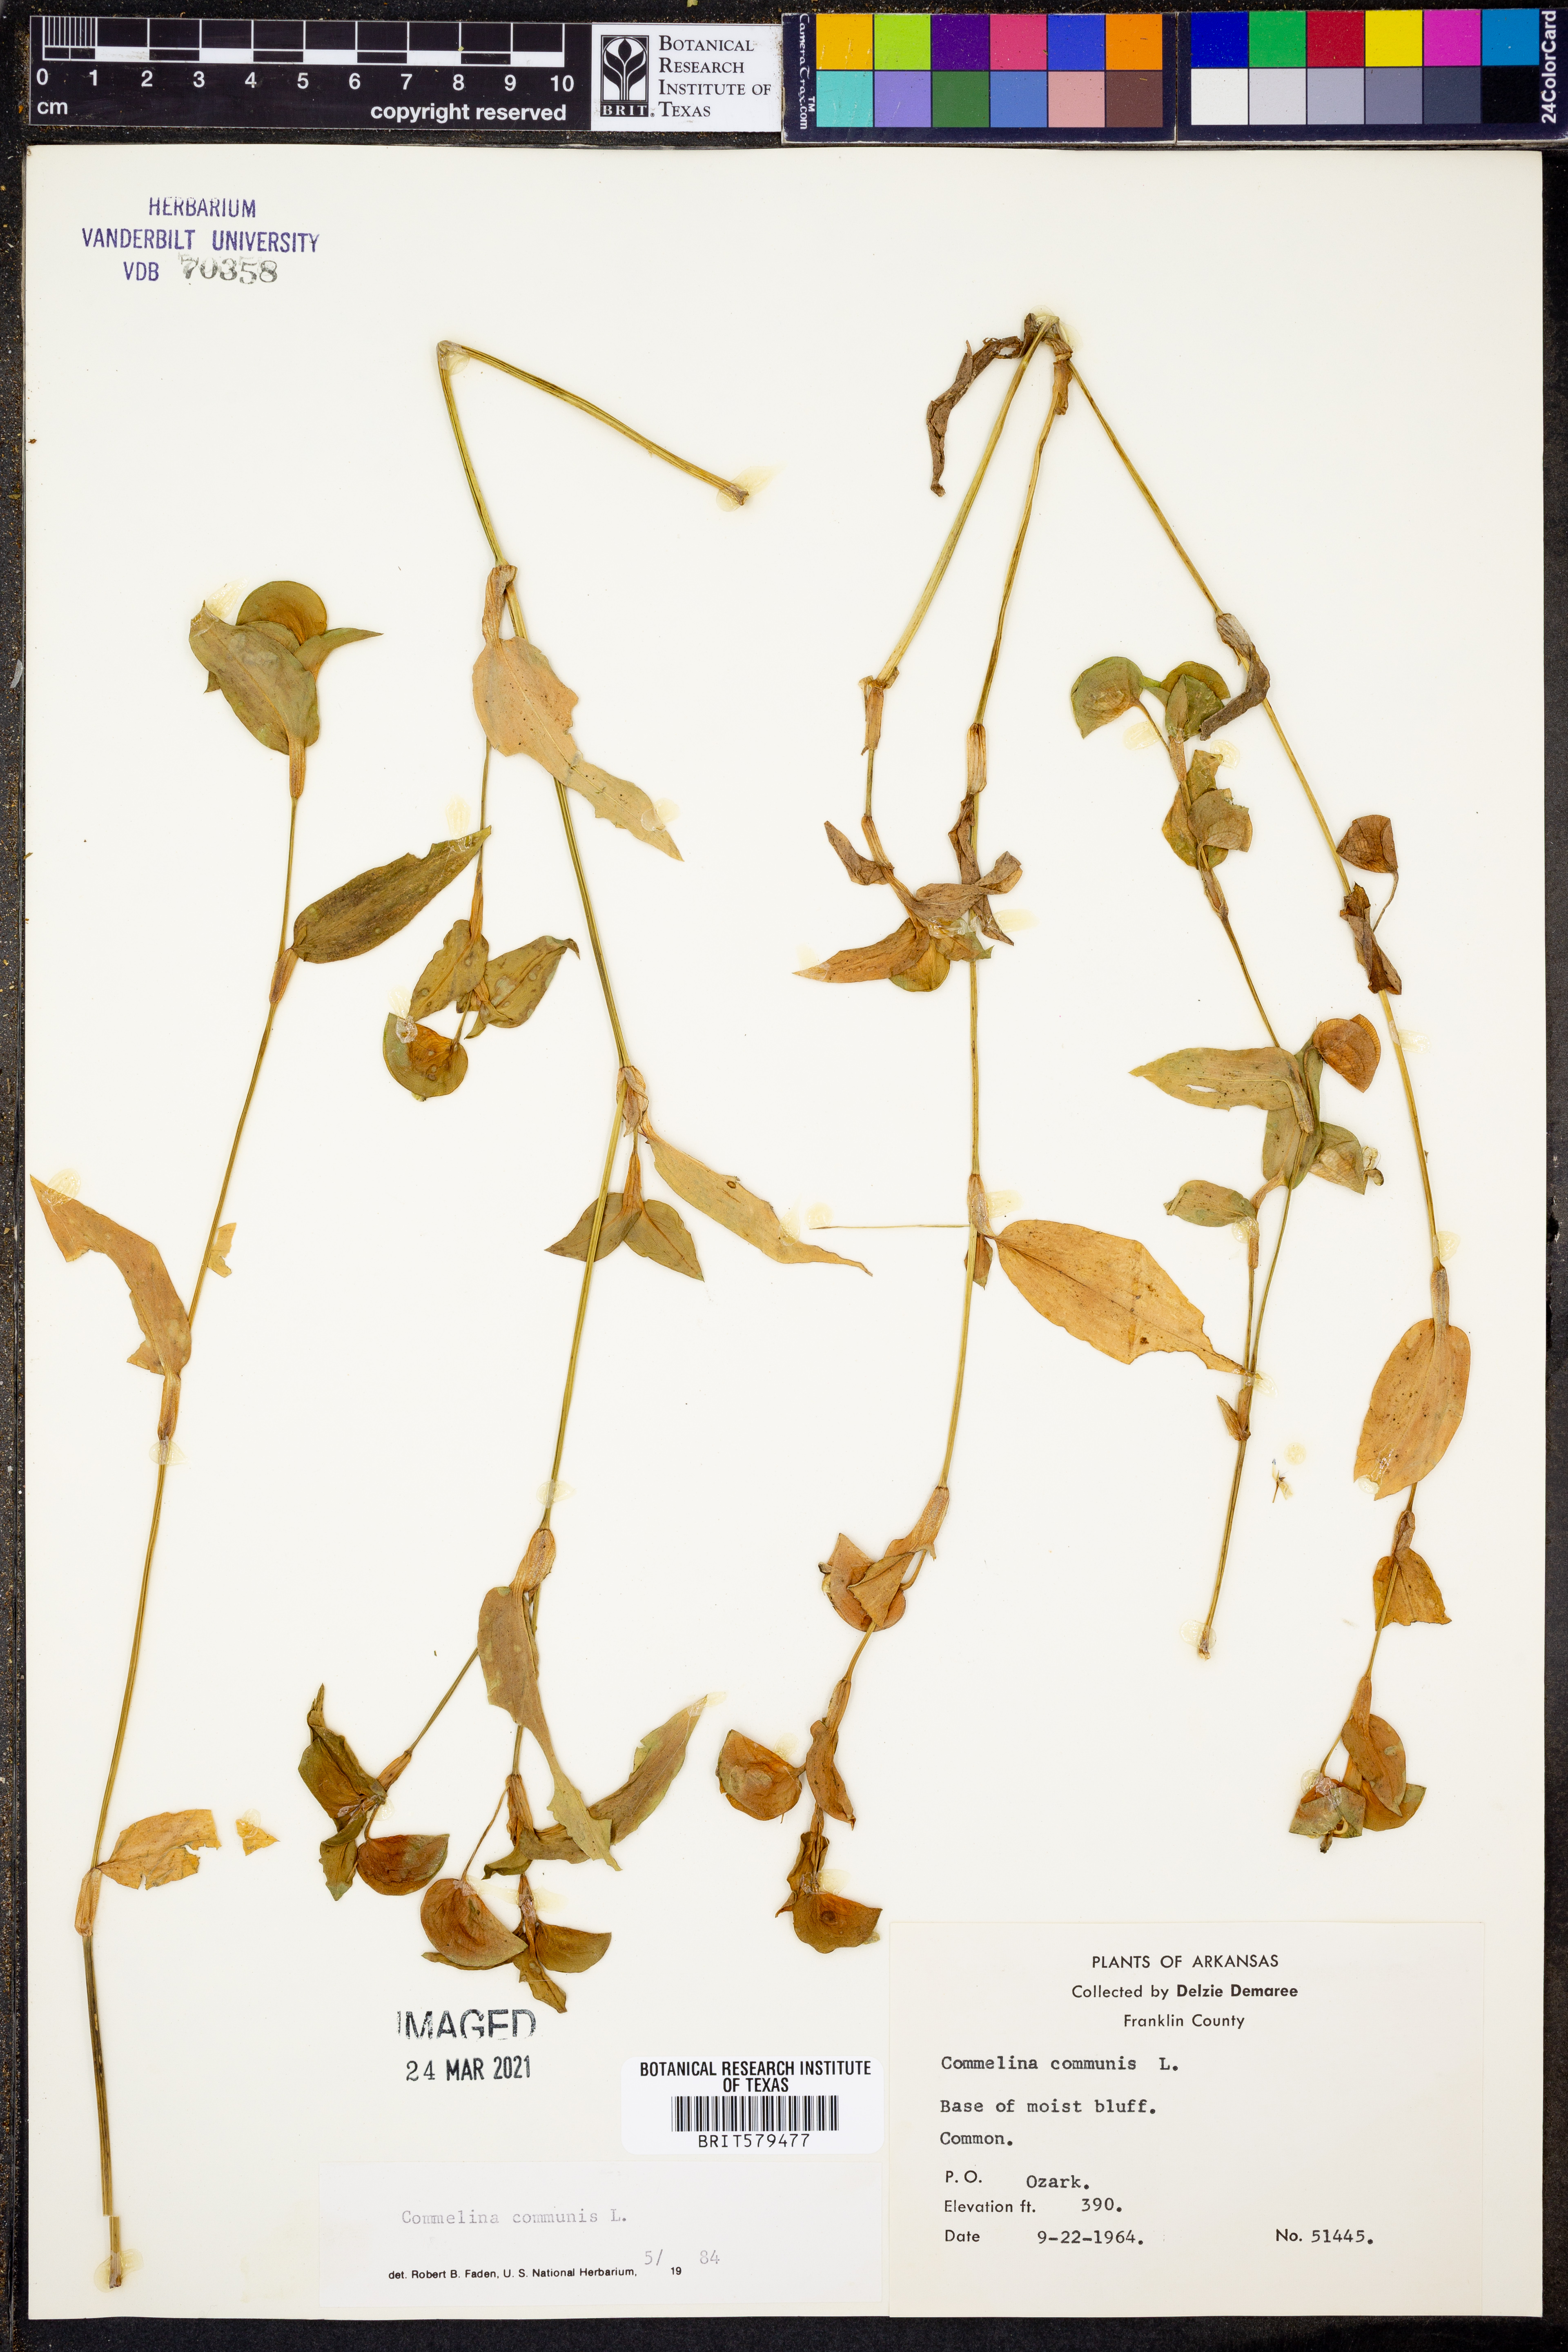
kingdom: Plantae
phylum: Tracheophyta
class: Liliopsida
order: Commelinales
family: Commelinaceae
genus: Commelina
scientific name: Commelina communis
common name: Asiatic dayflower
